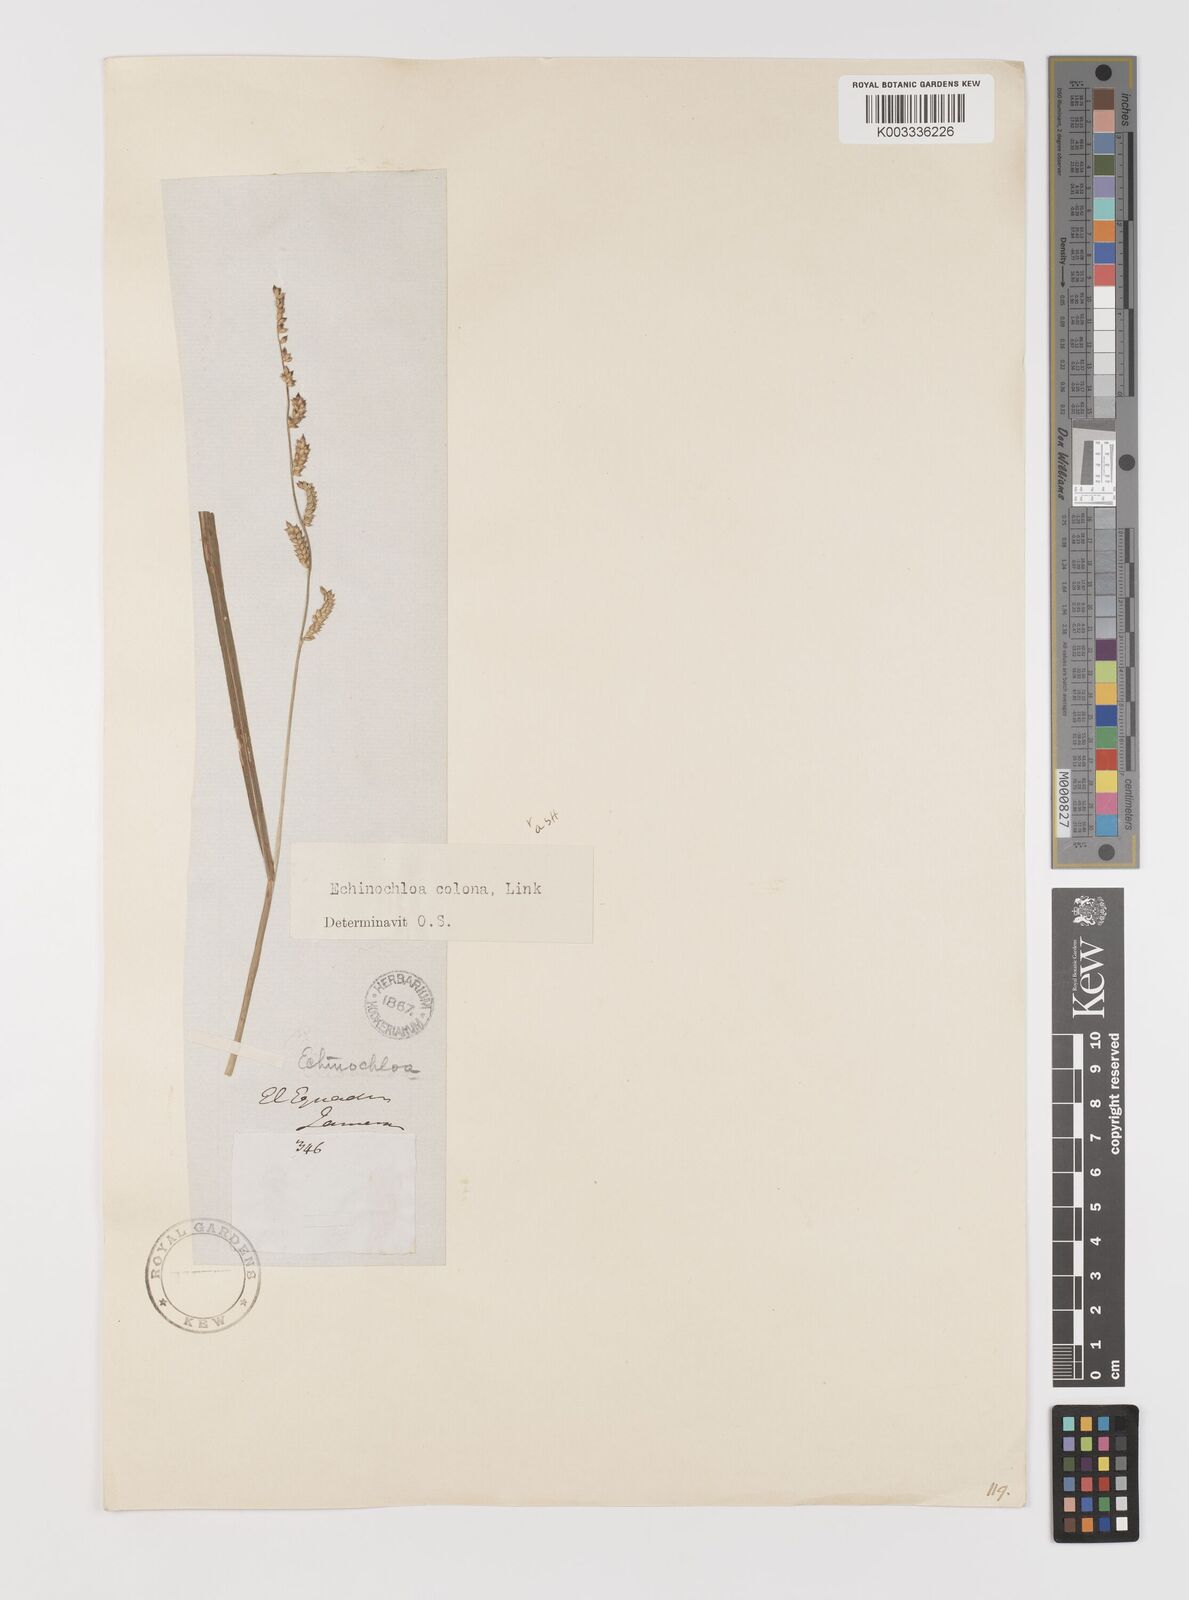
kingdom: Plantae
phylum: Tracheophyta
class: Liliopsida
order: Poales
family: Poaceae
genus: Echinochloa
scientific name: Echinochloa colonum
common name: Jungle rice
